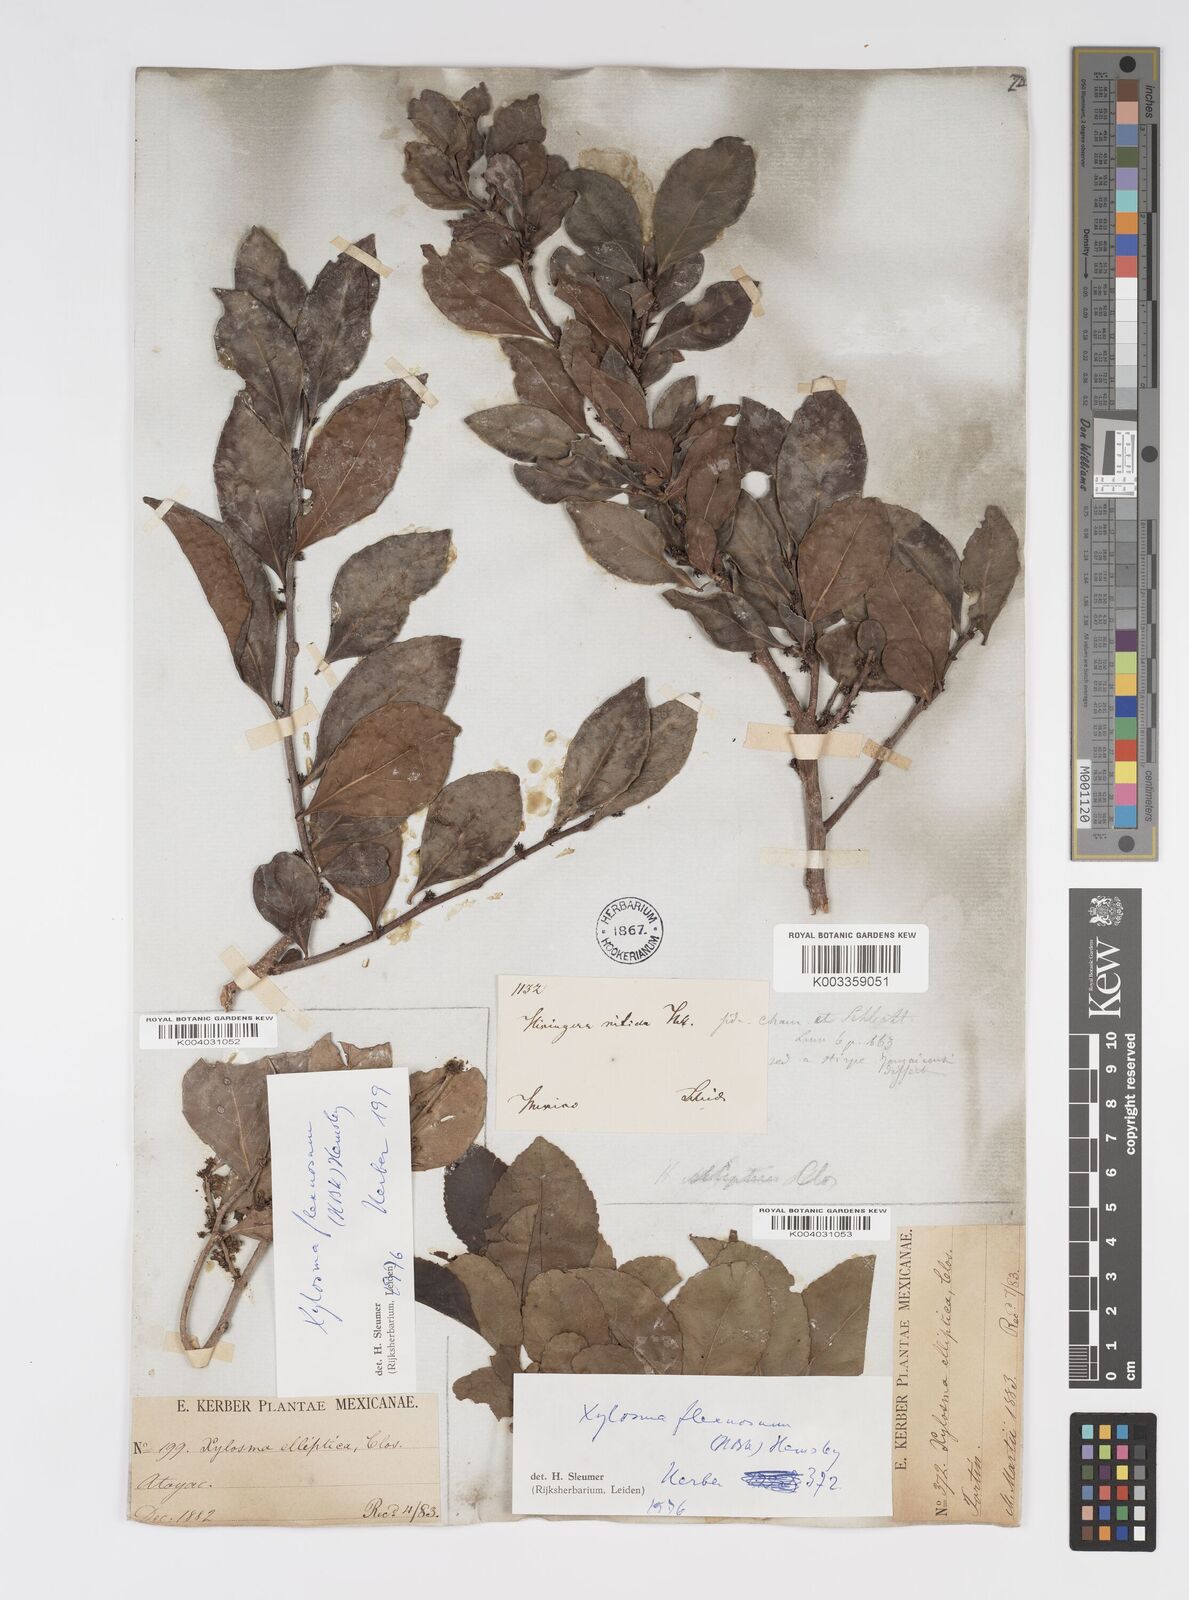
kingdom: Plantae
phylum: Tracheophyta
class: Magnoliopsida
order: Malpighiales
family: Salicaceae
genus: Xylosma
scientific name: Xylosma flexuosa
